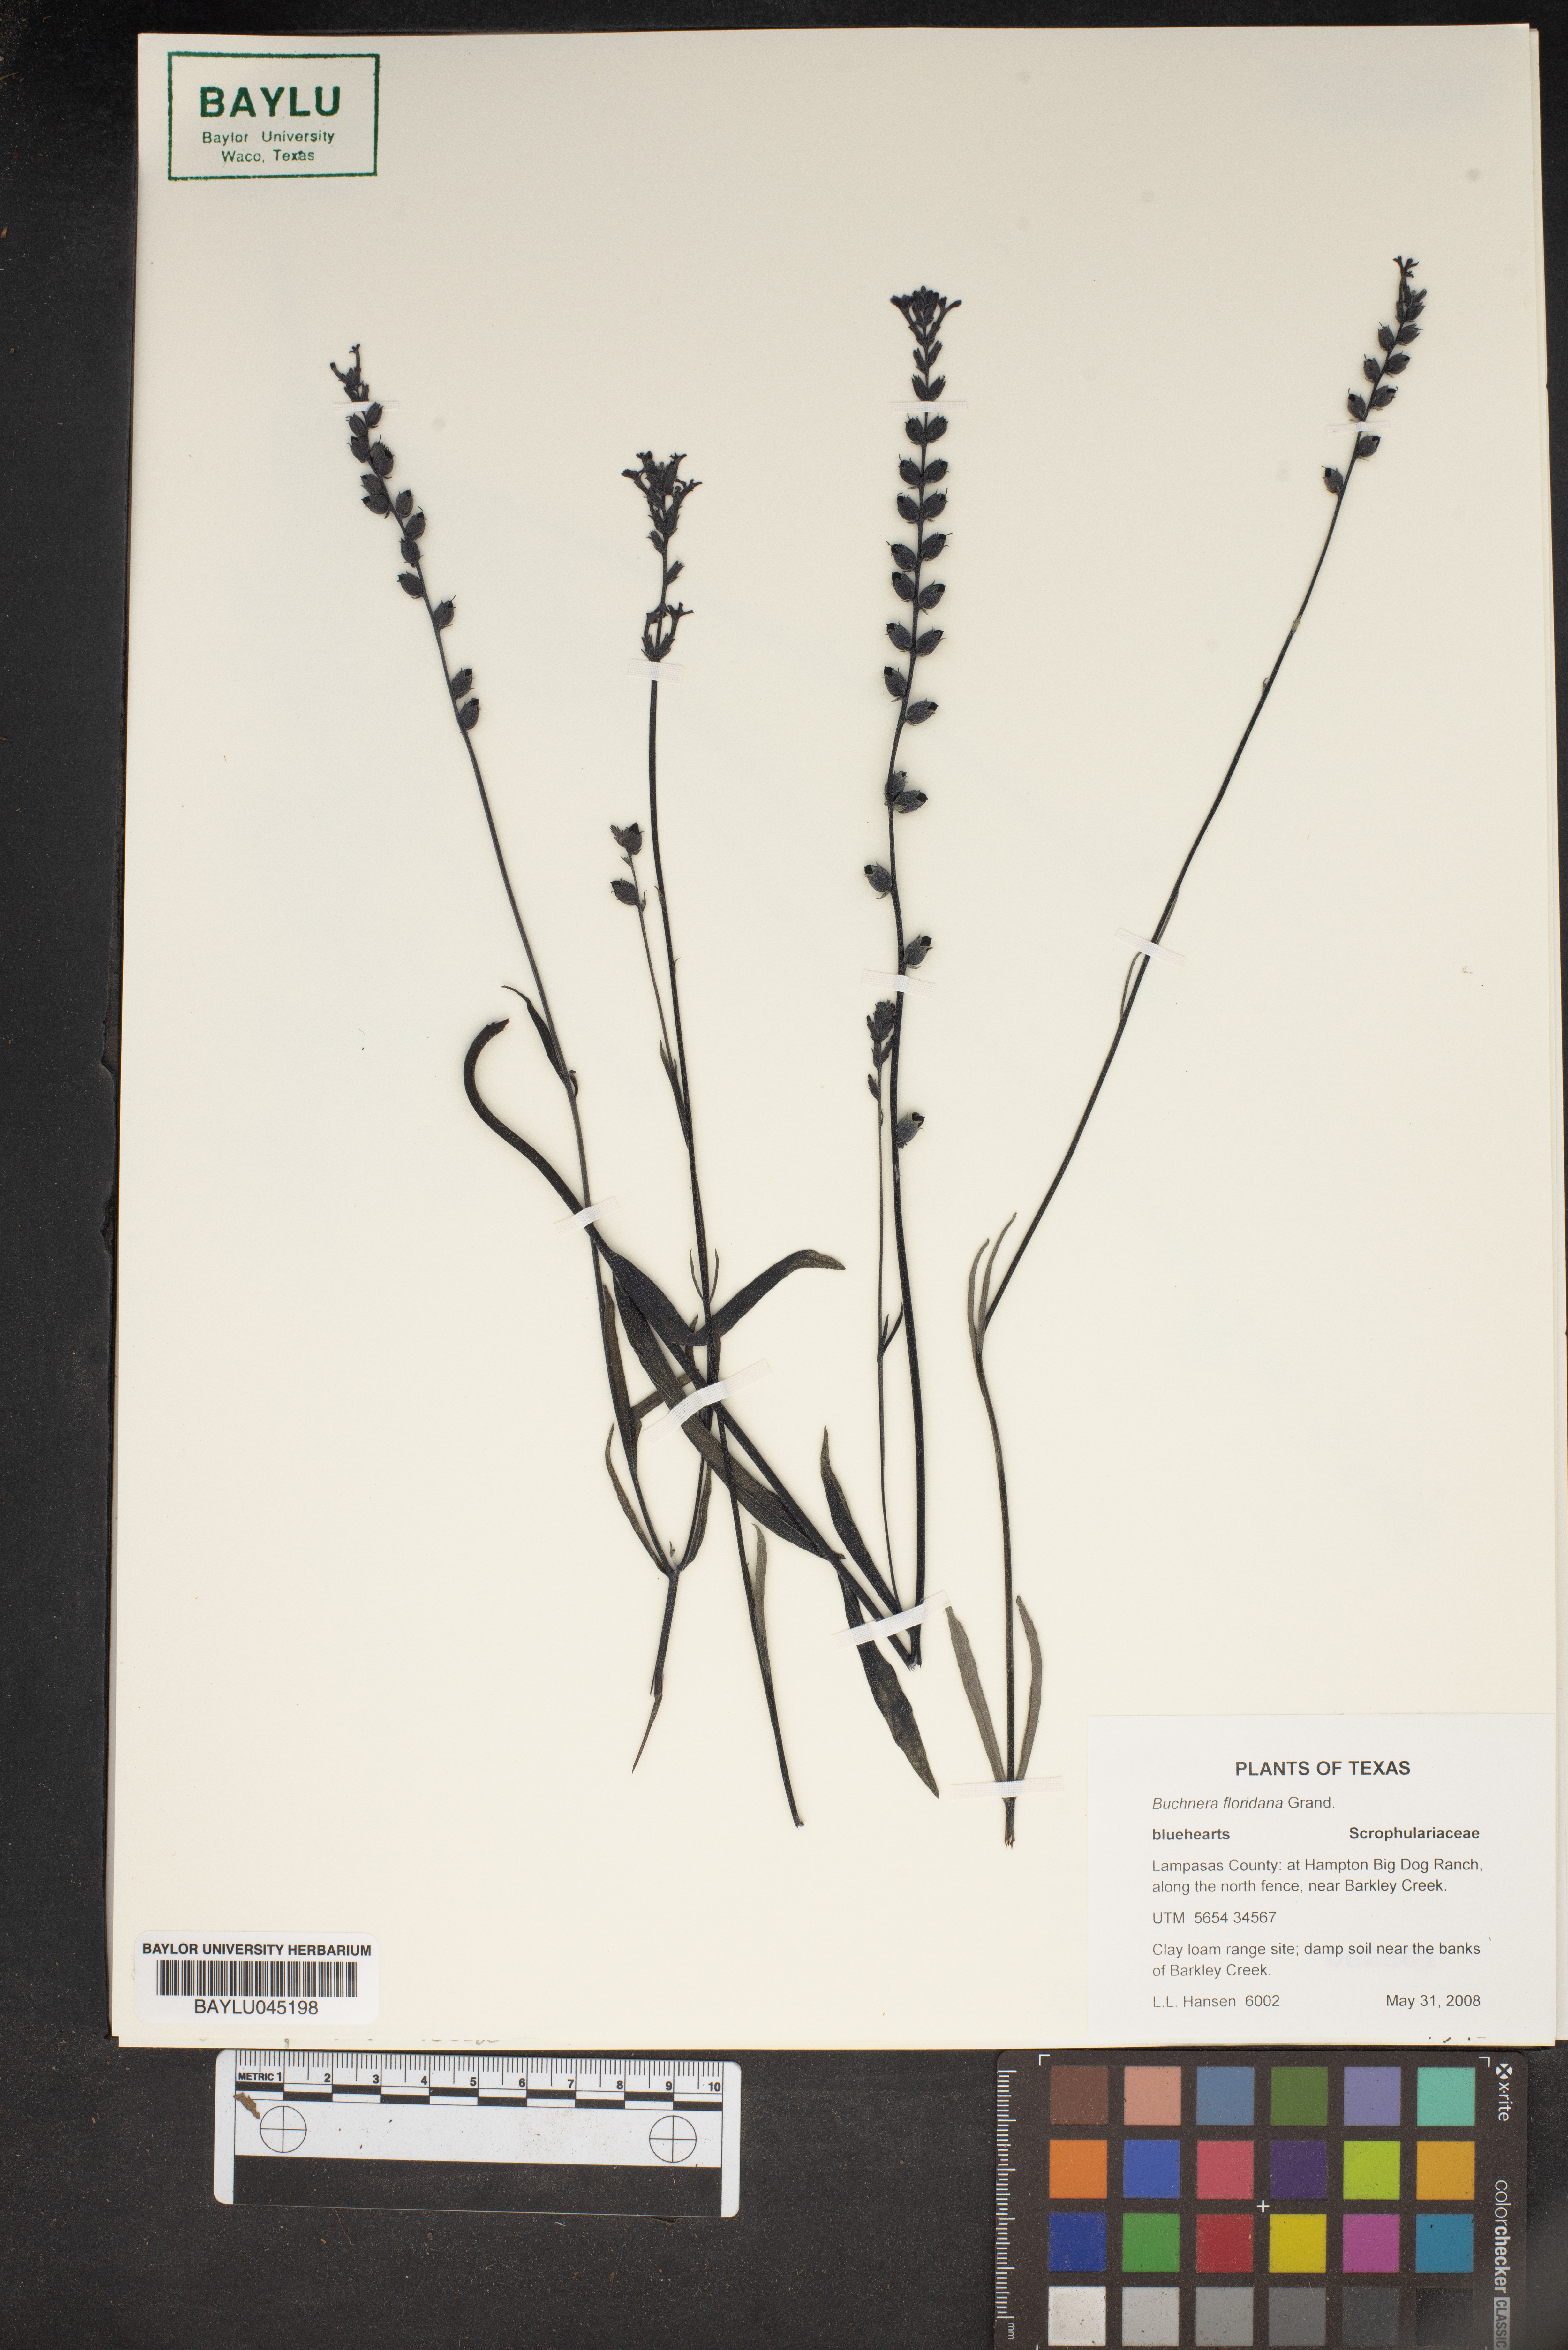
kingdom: Plantae
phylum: Tracheophyta
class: Magnoliopsida
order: Lamiales
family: Orobanchaceae
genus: Buchnera
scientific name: Buchnera floridana
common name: Florida bluehearts
